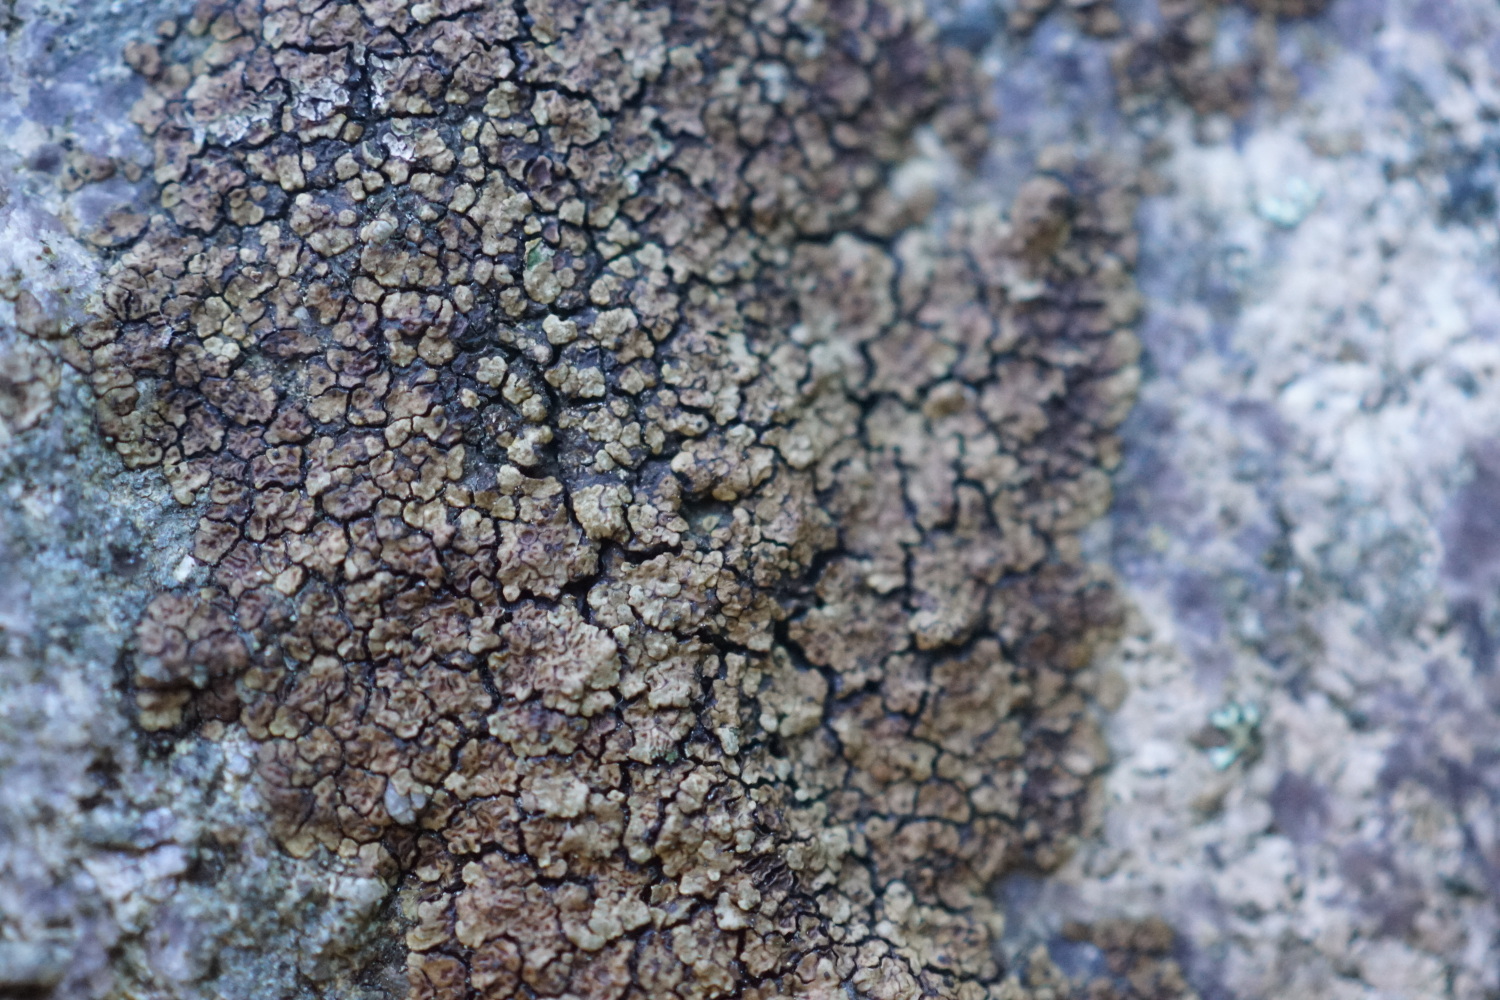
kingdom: Fungi
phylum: Ascomycota
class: Lecanoromycetes
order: Acarosporales
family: Acarosporaceae
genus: Acarospora
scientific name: Acarospora fuscata
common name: brun småsporelav
